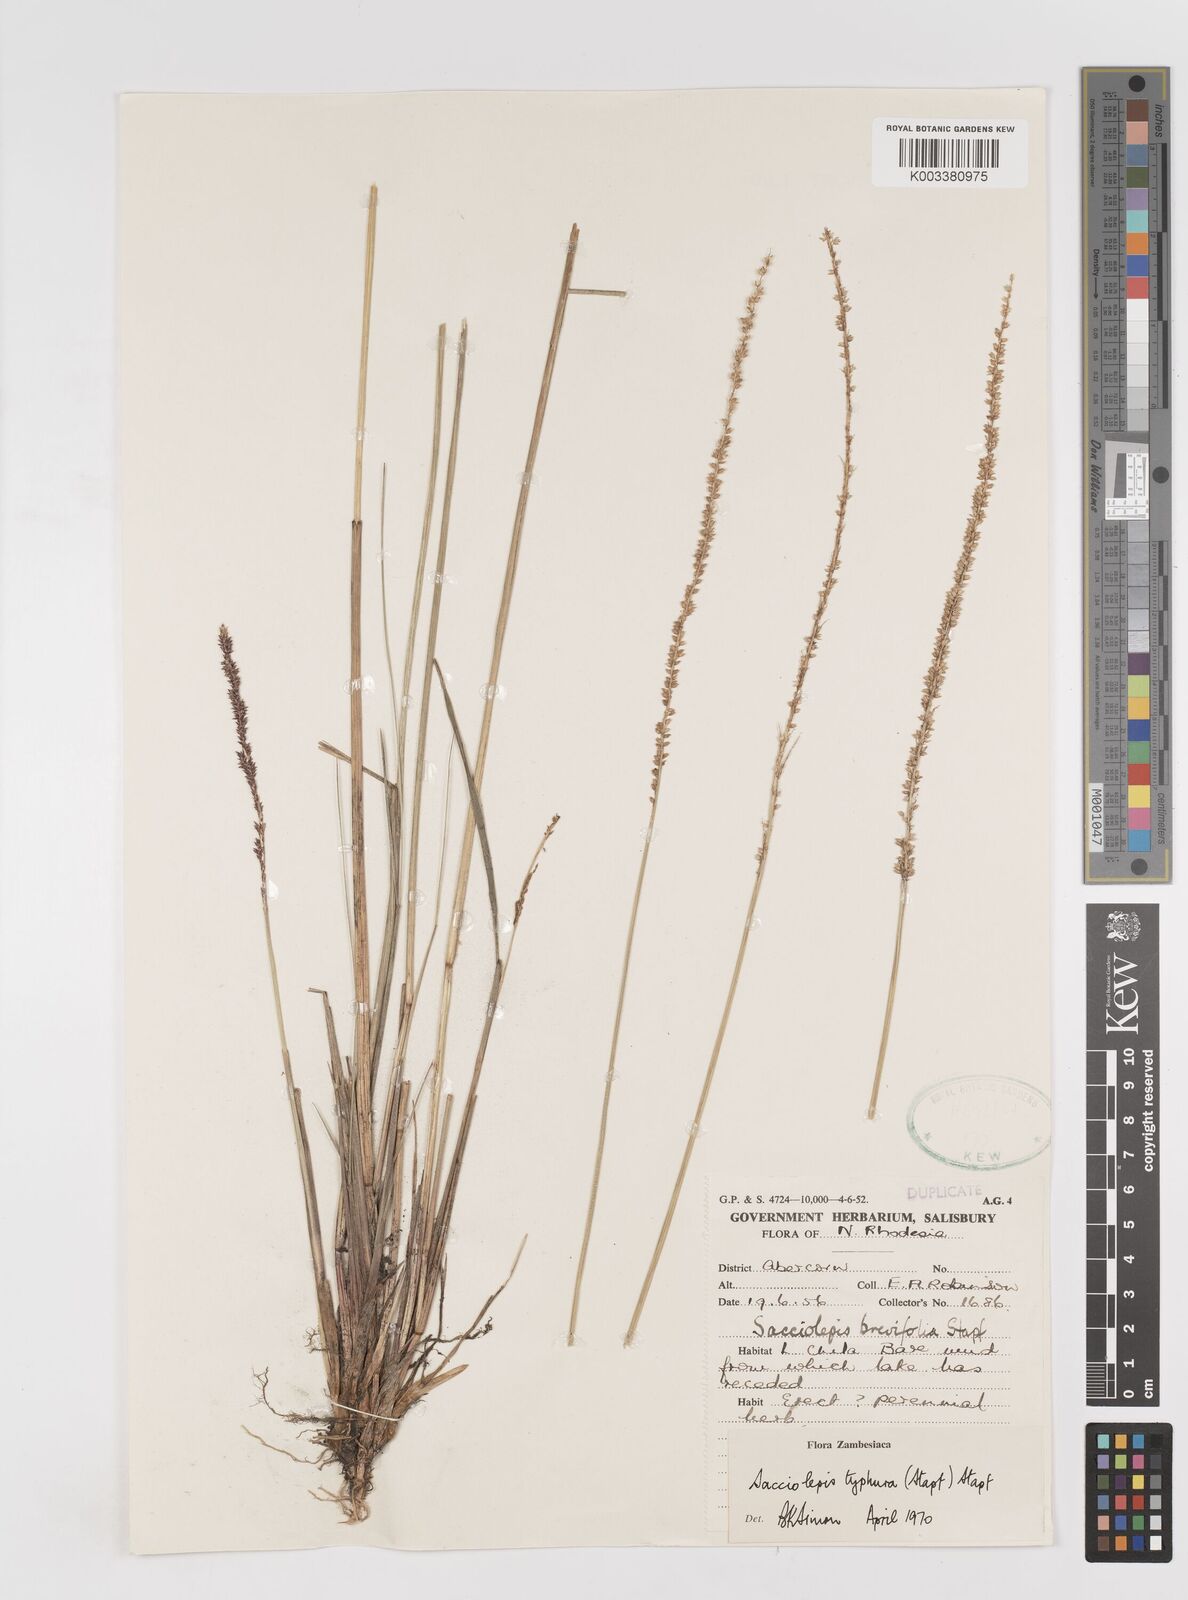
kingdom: Plantae
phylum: Tracheophyta
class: Liliopsida
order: Poales
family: Poaceae
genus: Sacciolepis
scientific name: Sacciolepis typhura
